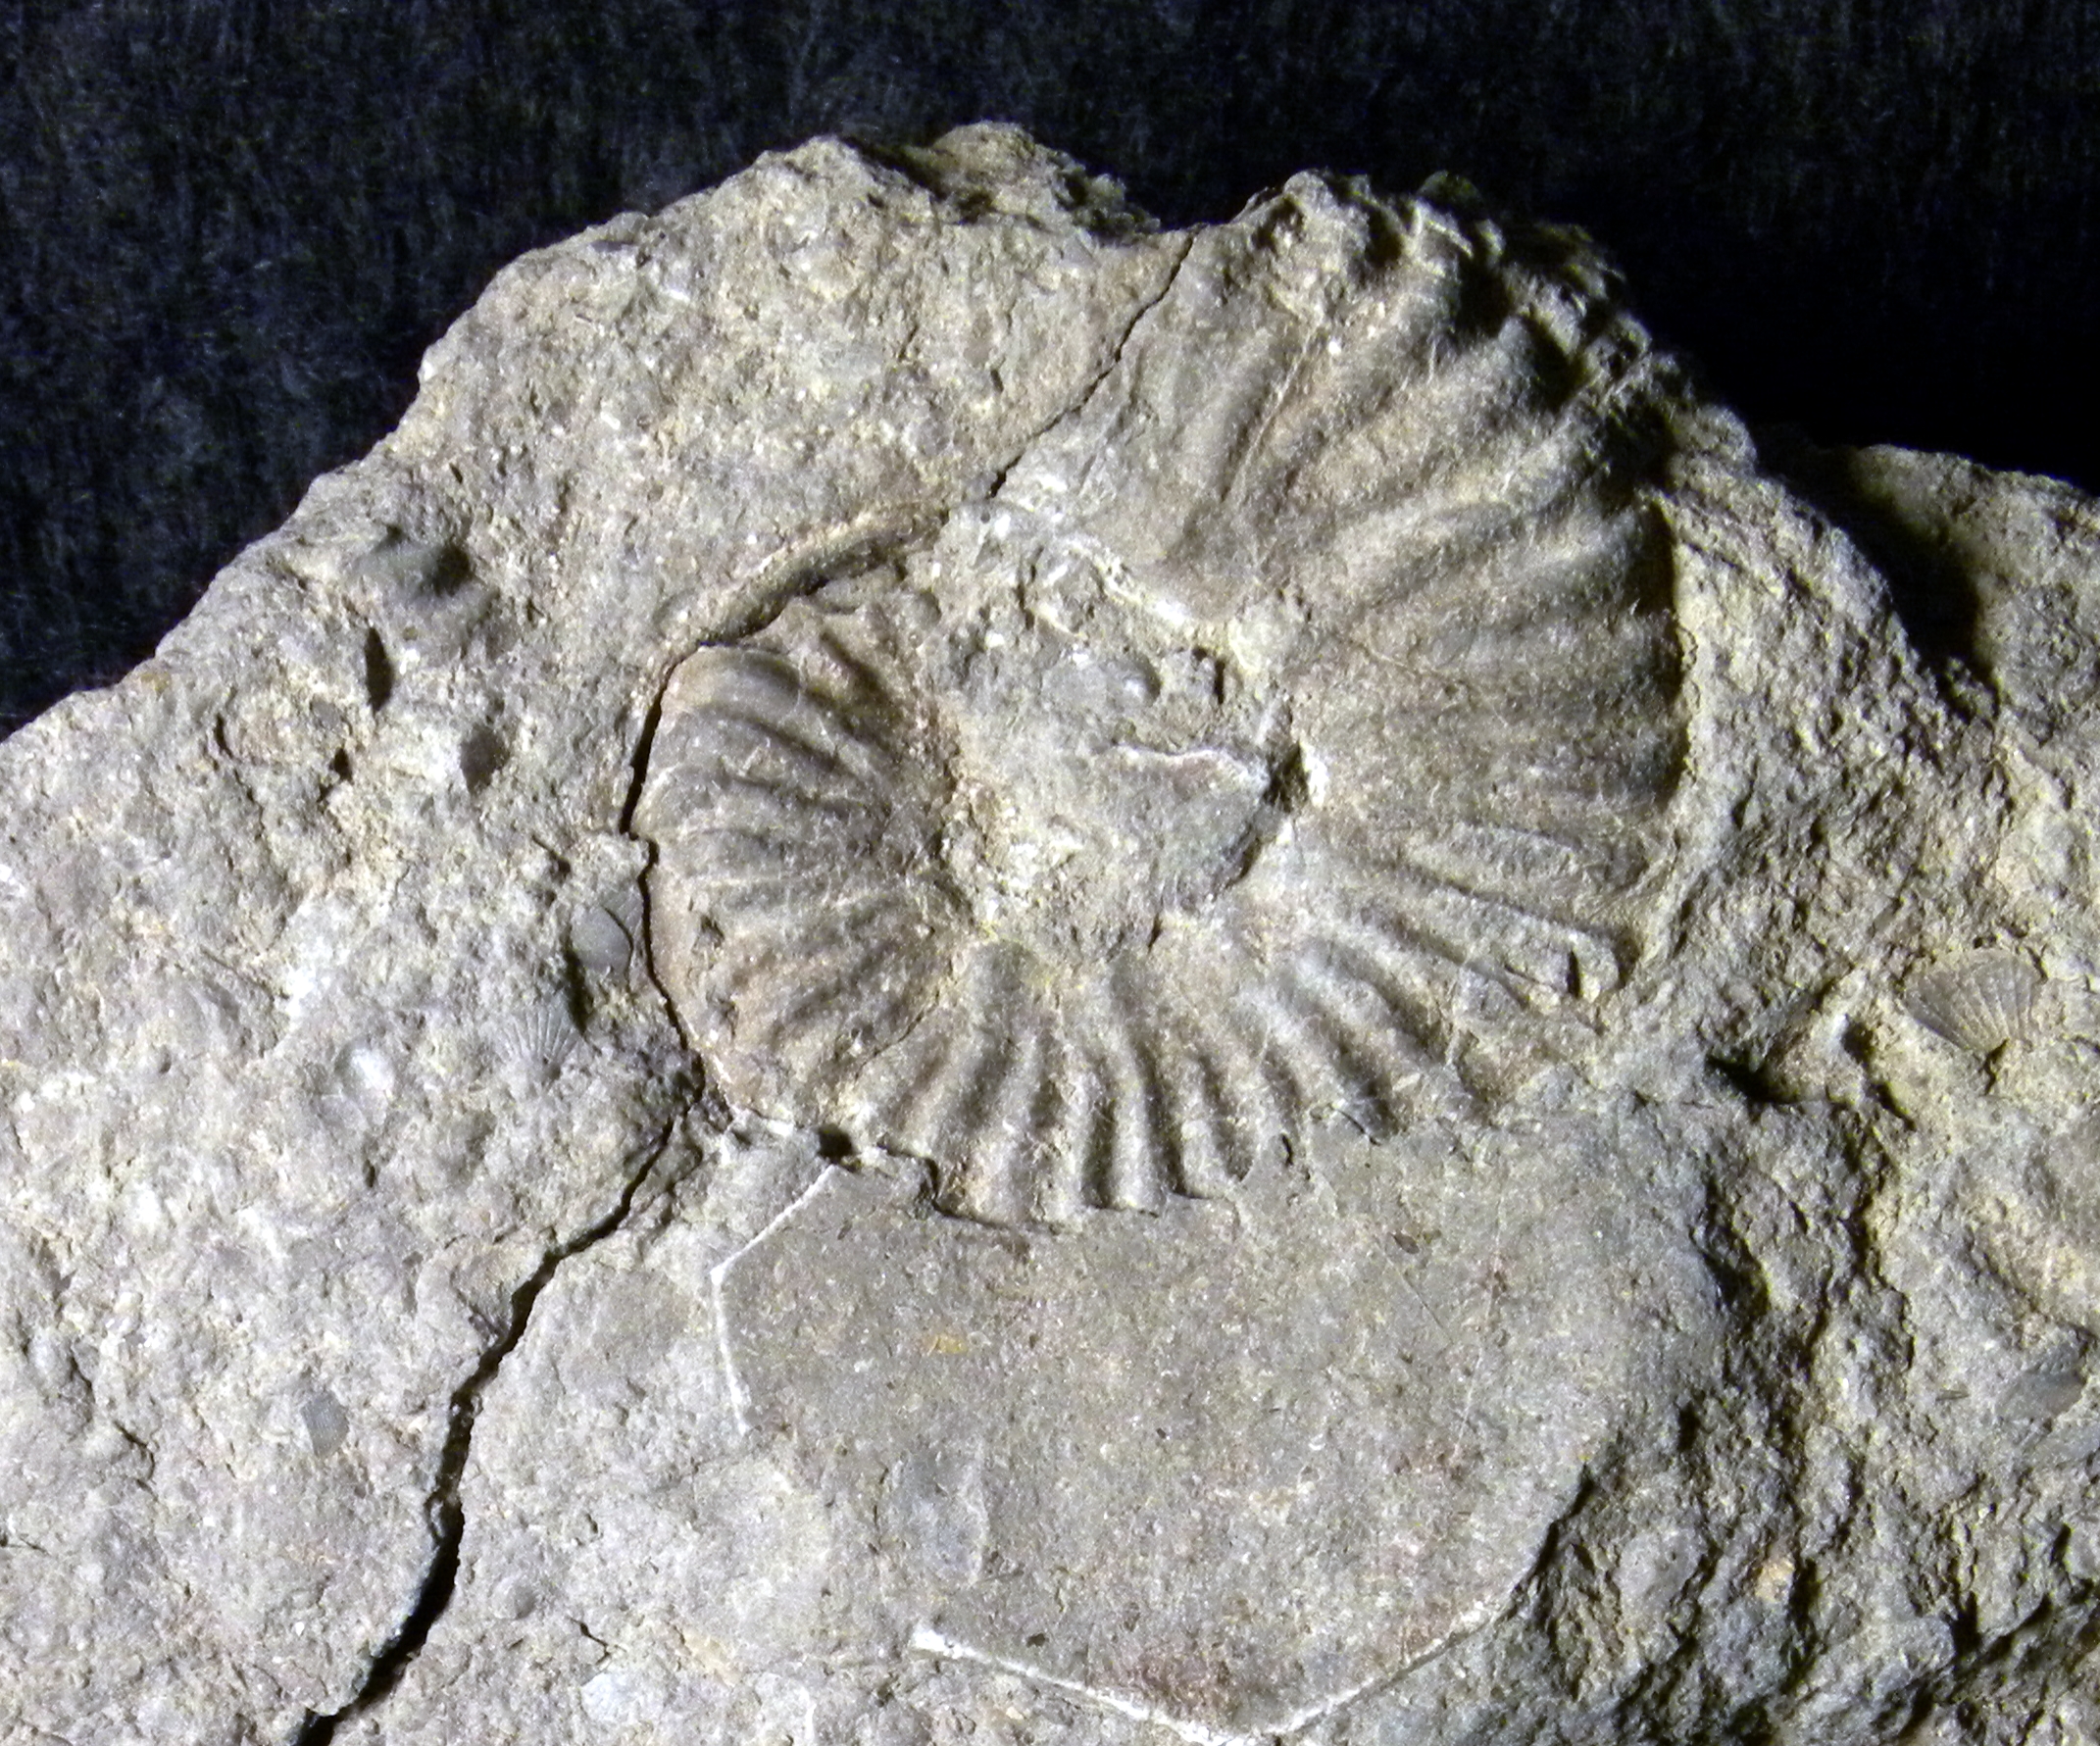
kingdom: Animalia
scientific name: Animalia
